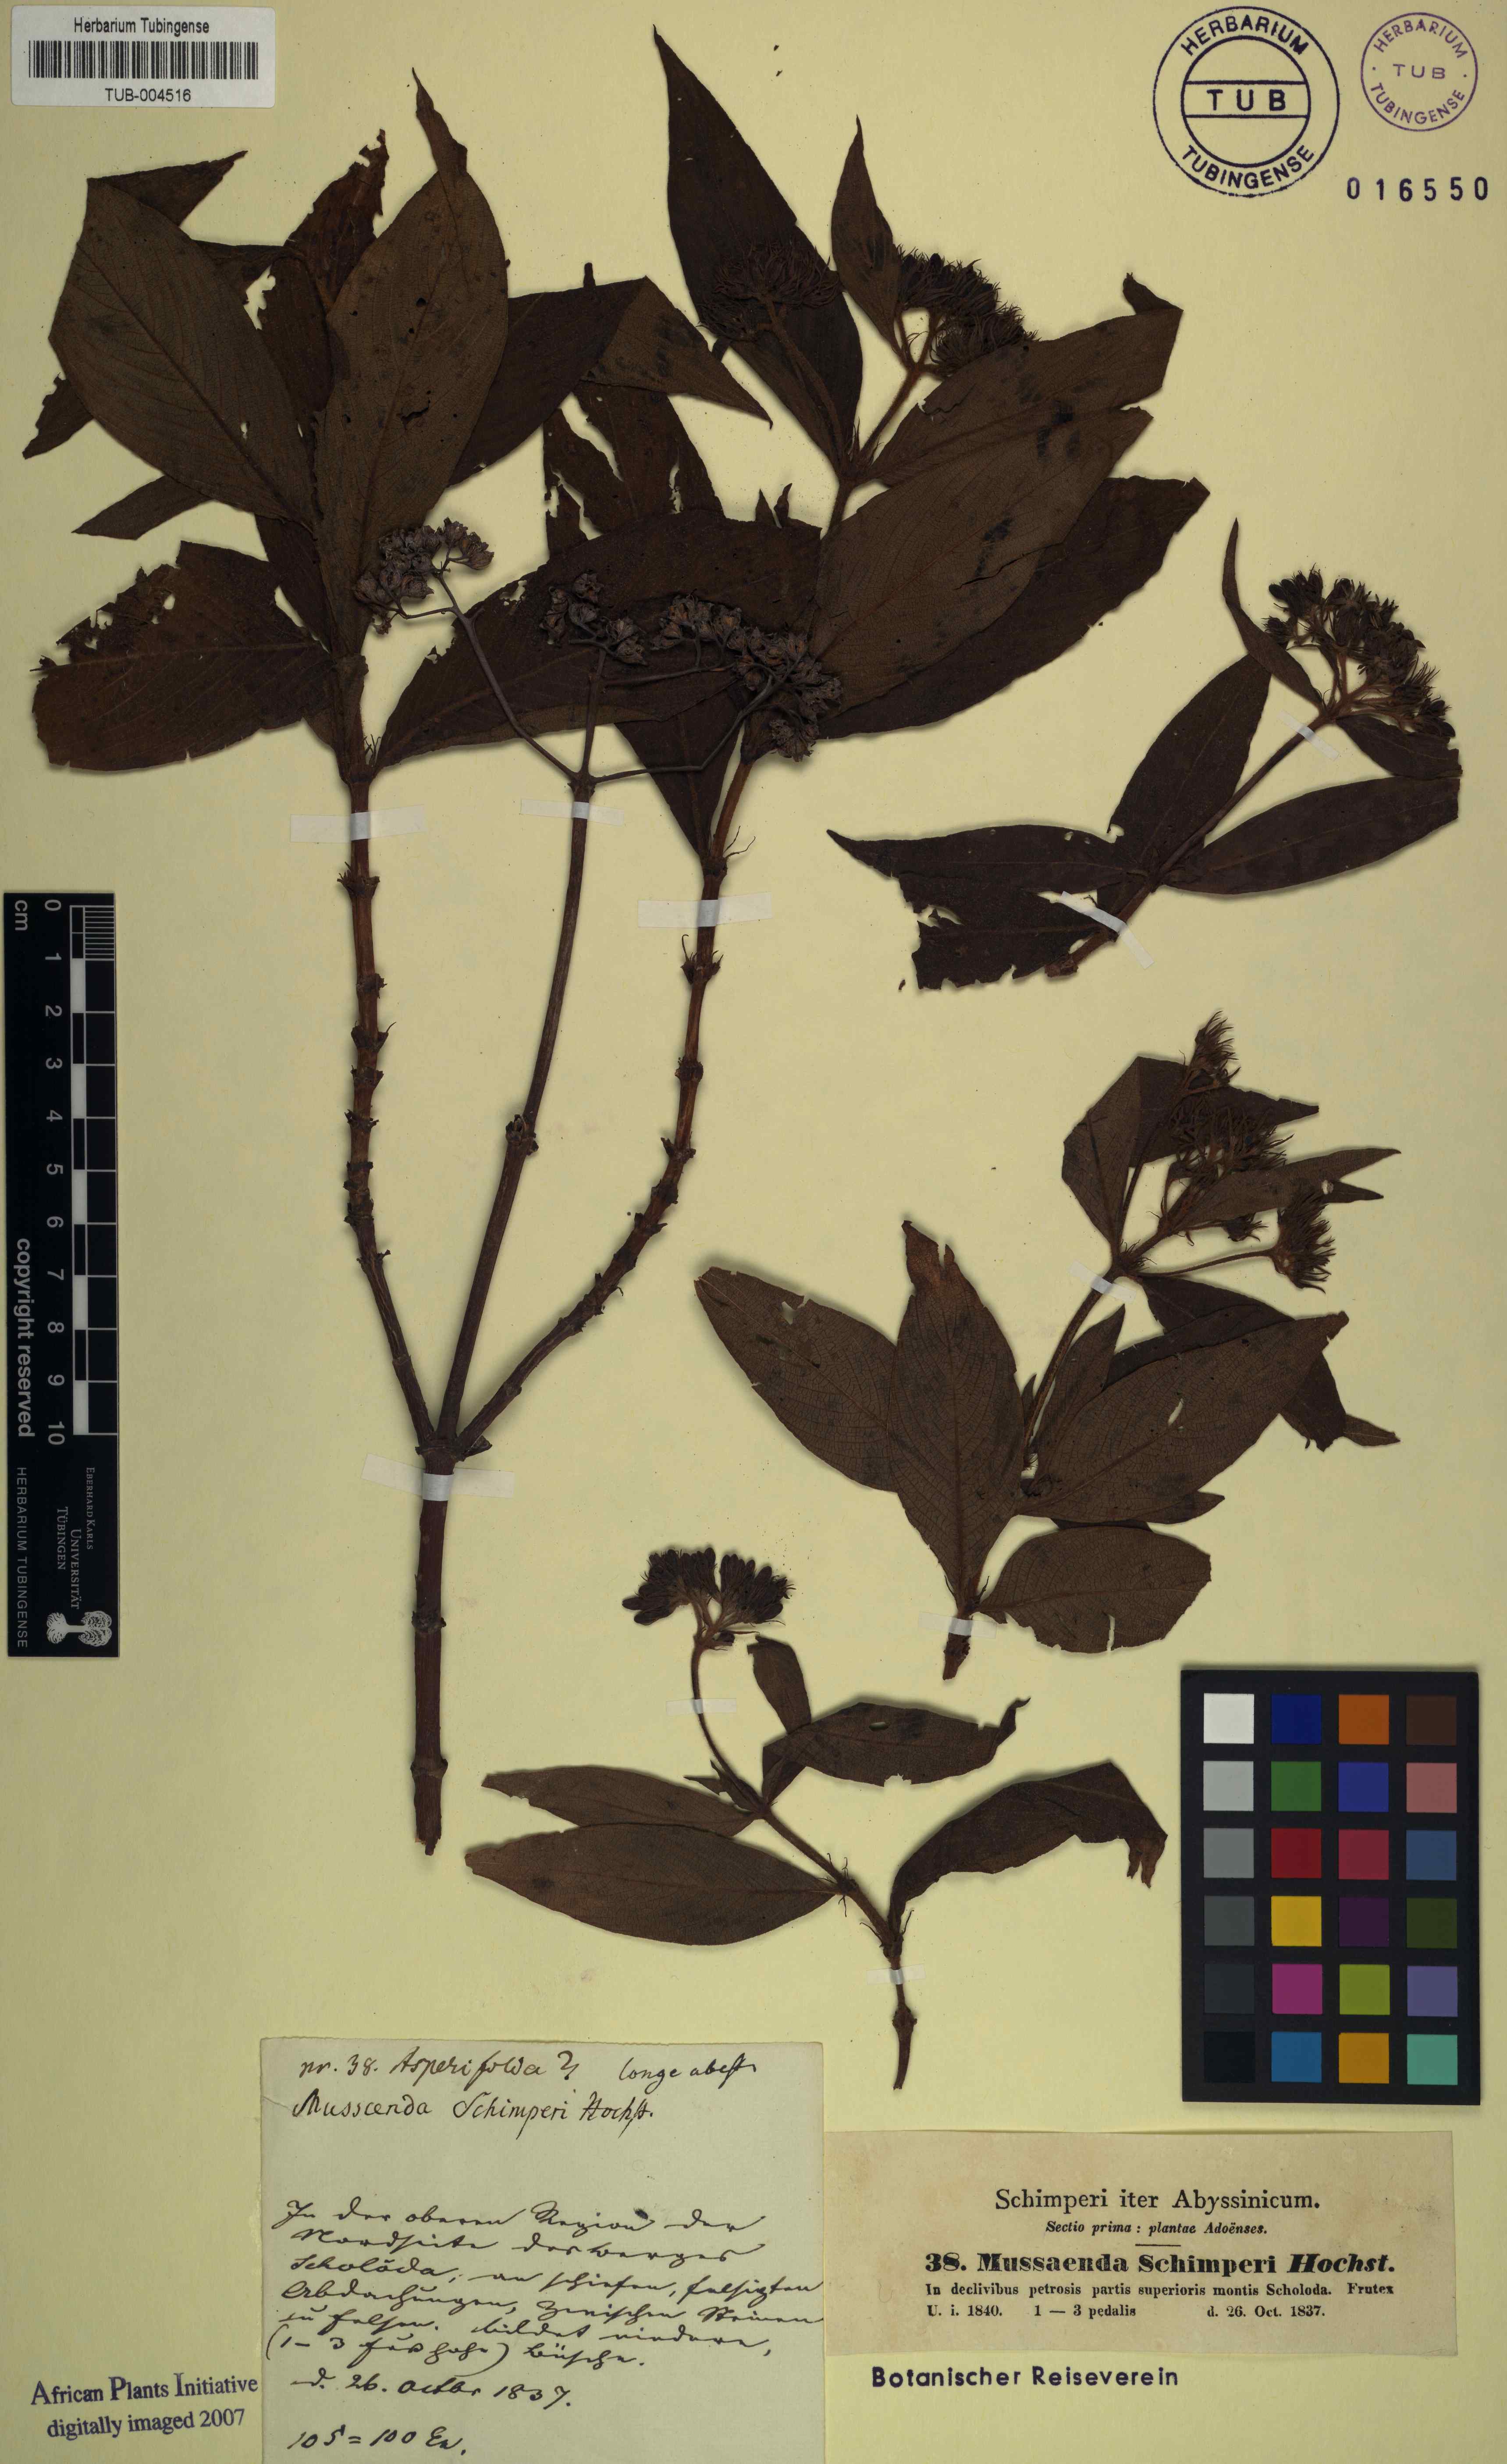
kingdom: Plantae
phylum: Tracheophyta
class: Magnoliopsida
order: Gentianales
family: Rubiaceae
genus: Phyllopentas
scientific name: Phyllopentas schimperi
